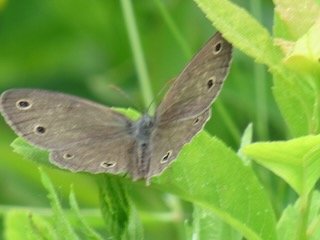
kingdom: Animalia
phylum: Arthropoda
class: Insecta
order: Lepidoptera
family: Nymphalidae
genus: Euptychia
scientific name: Euptychia cymela
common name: Little Wood Satyr
